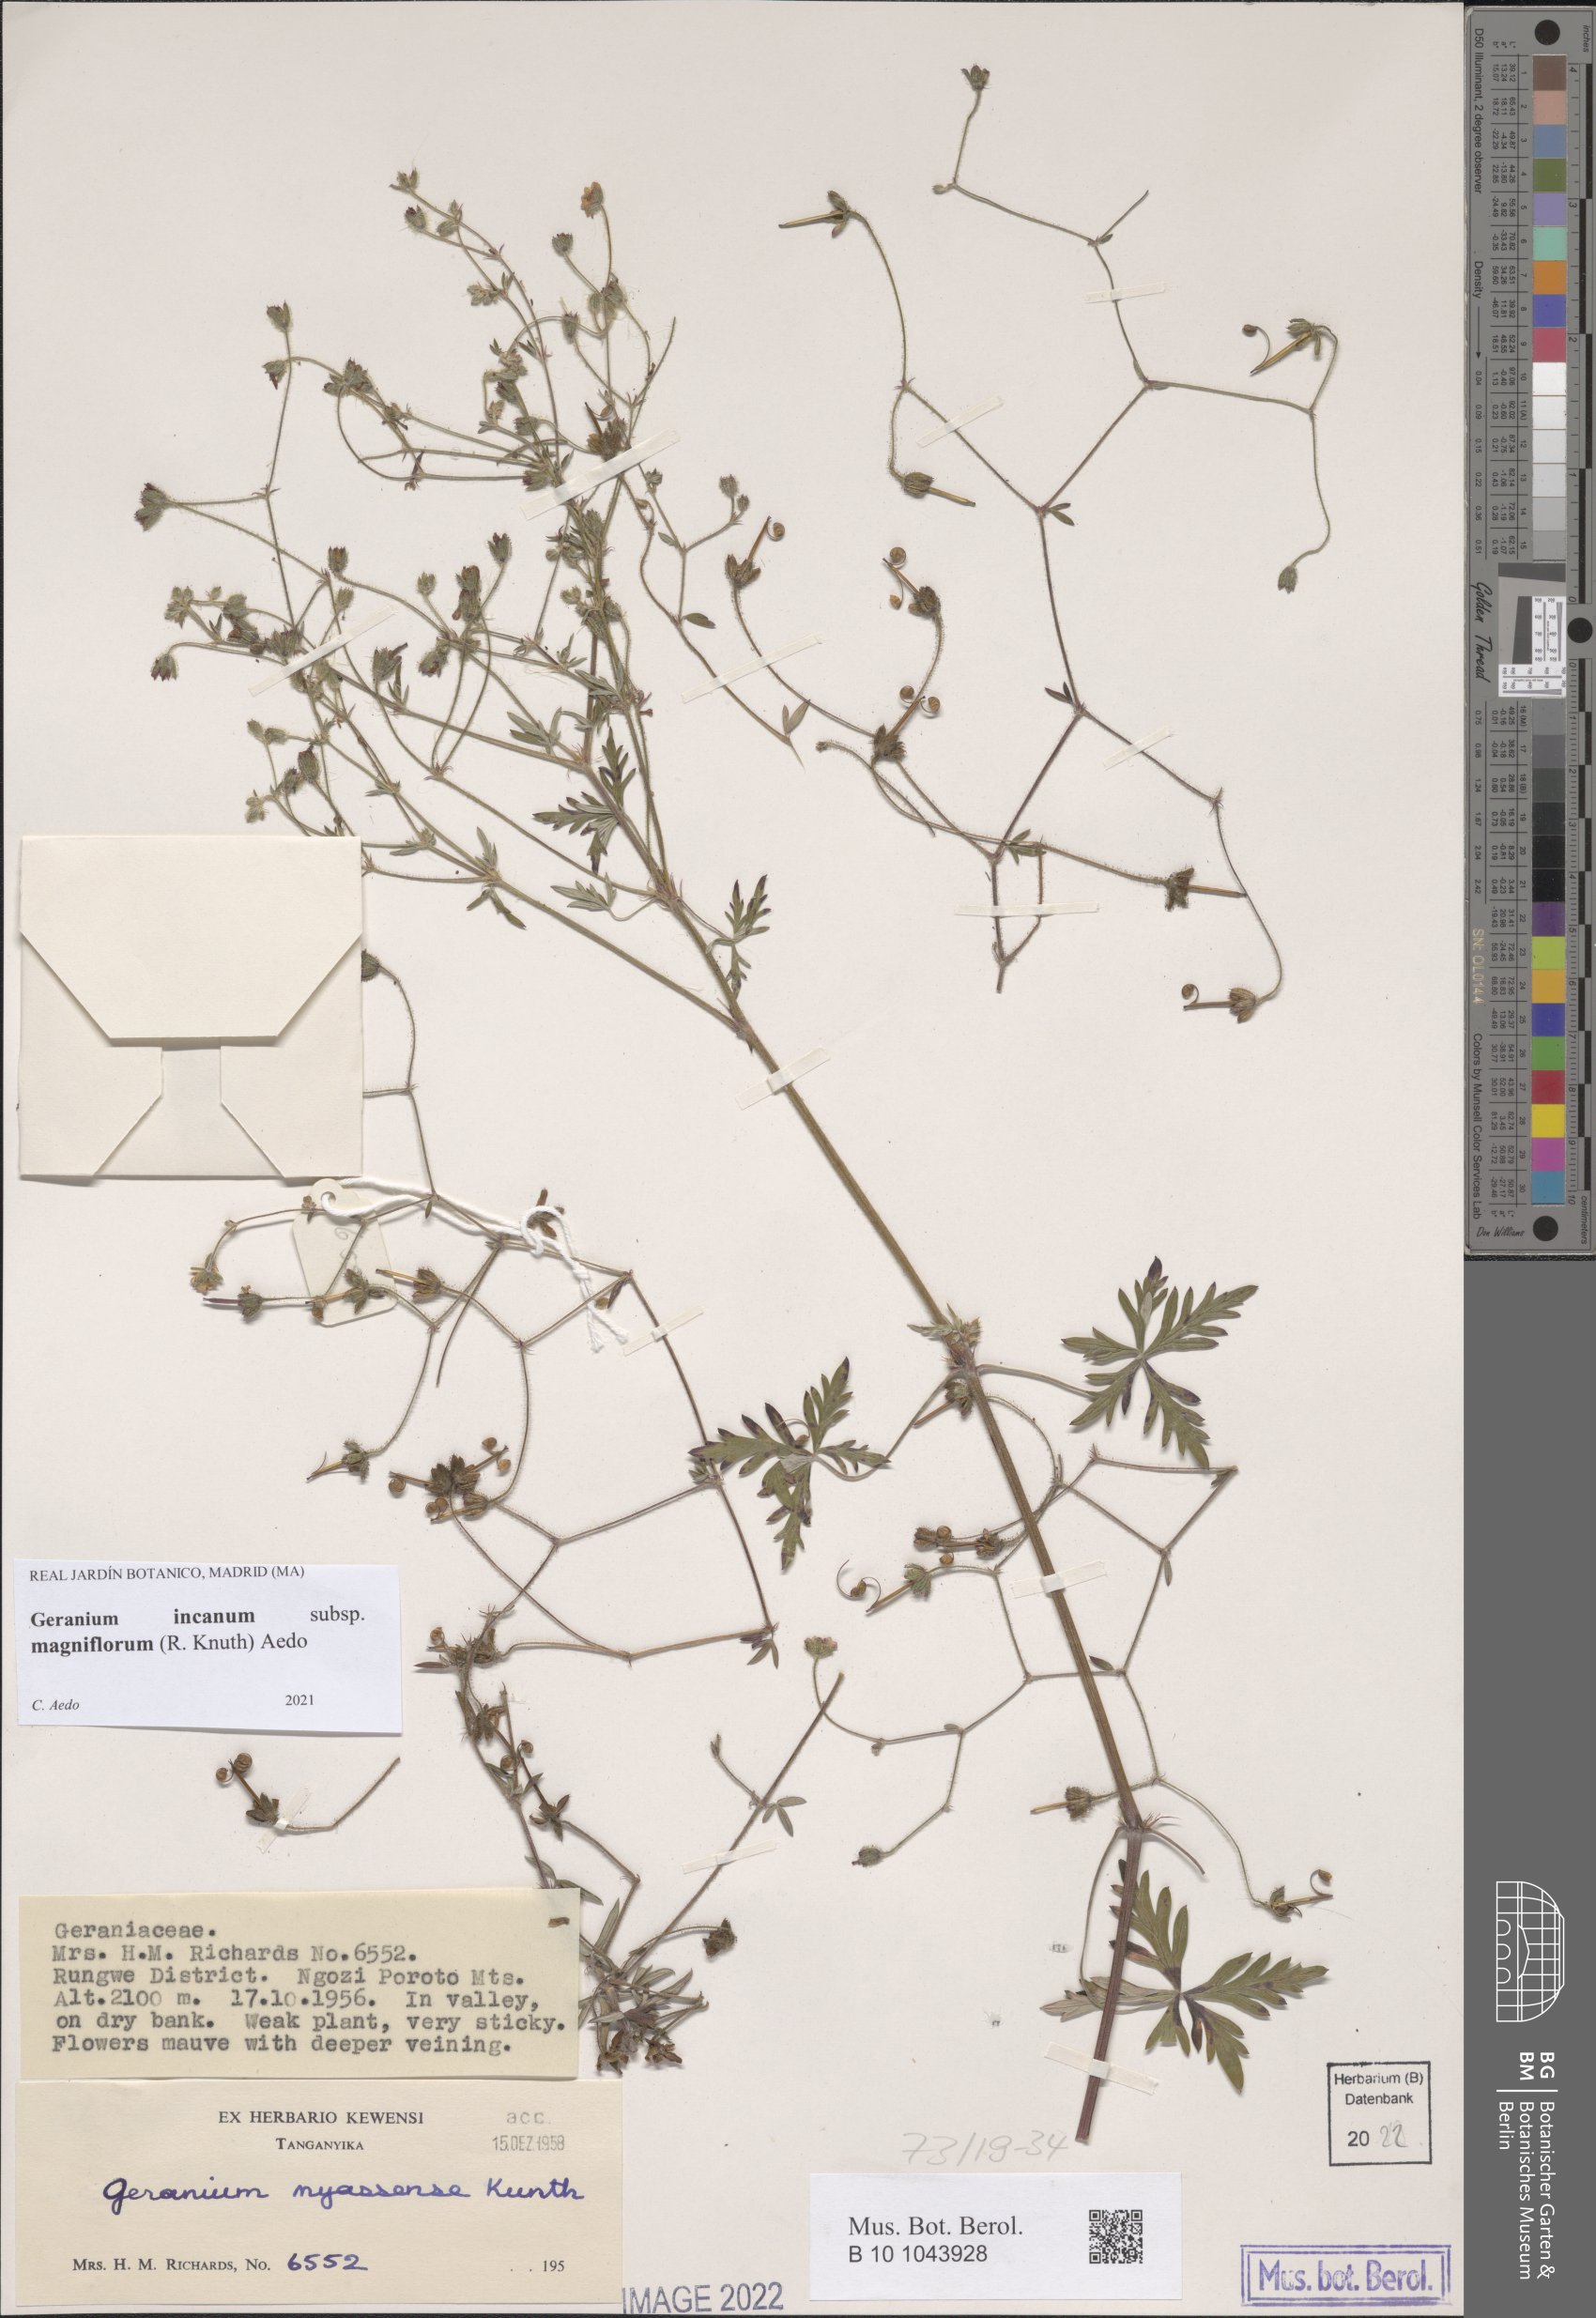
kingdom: Plantae
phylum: Tracheophyta
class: Magnoliopsida
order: Geraniales
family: Geraniaceae
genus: Geranium
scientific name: Geranium incanum
